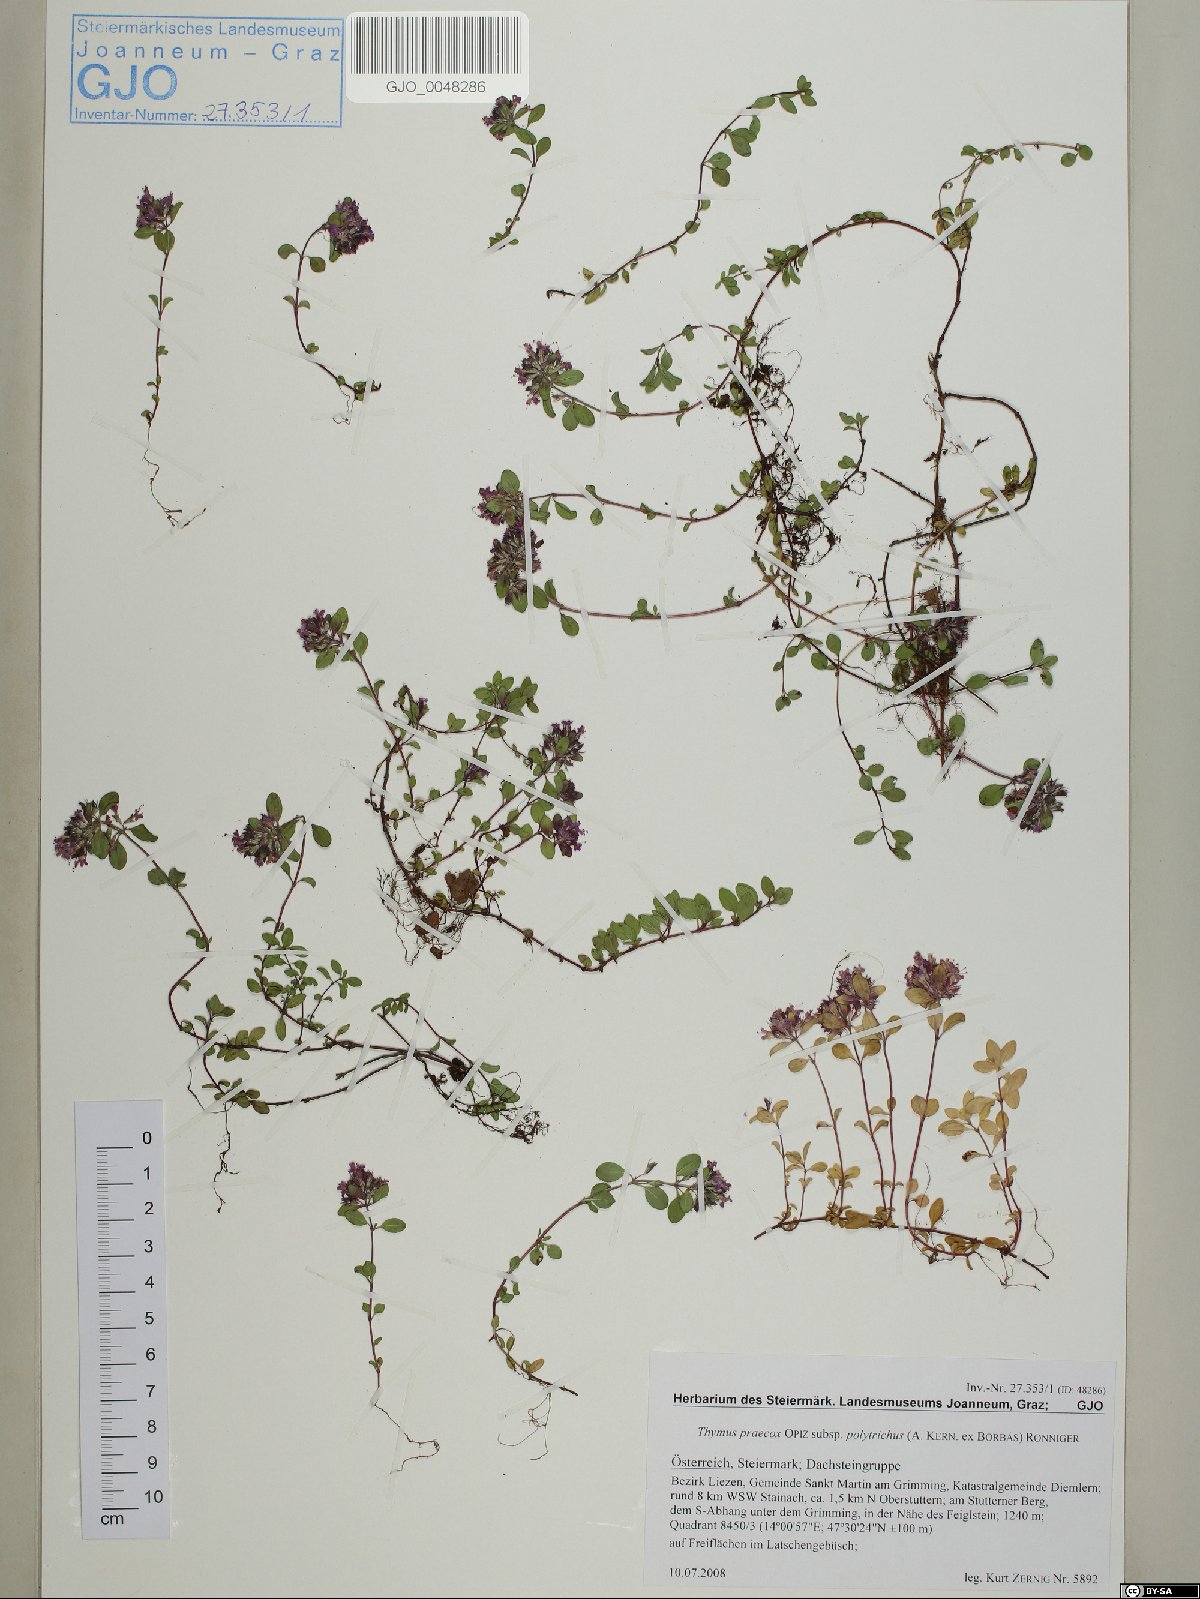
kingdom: Plantae
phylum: Tracheophyta
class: Magnoliopsida
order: Lamiales
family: Lamiaceae
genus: Thymus
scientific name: Thymus praecox
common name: Wild thyme
